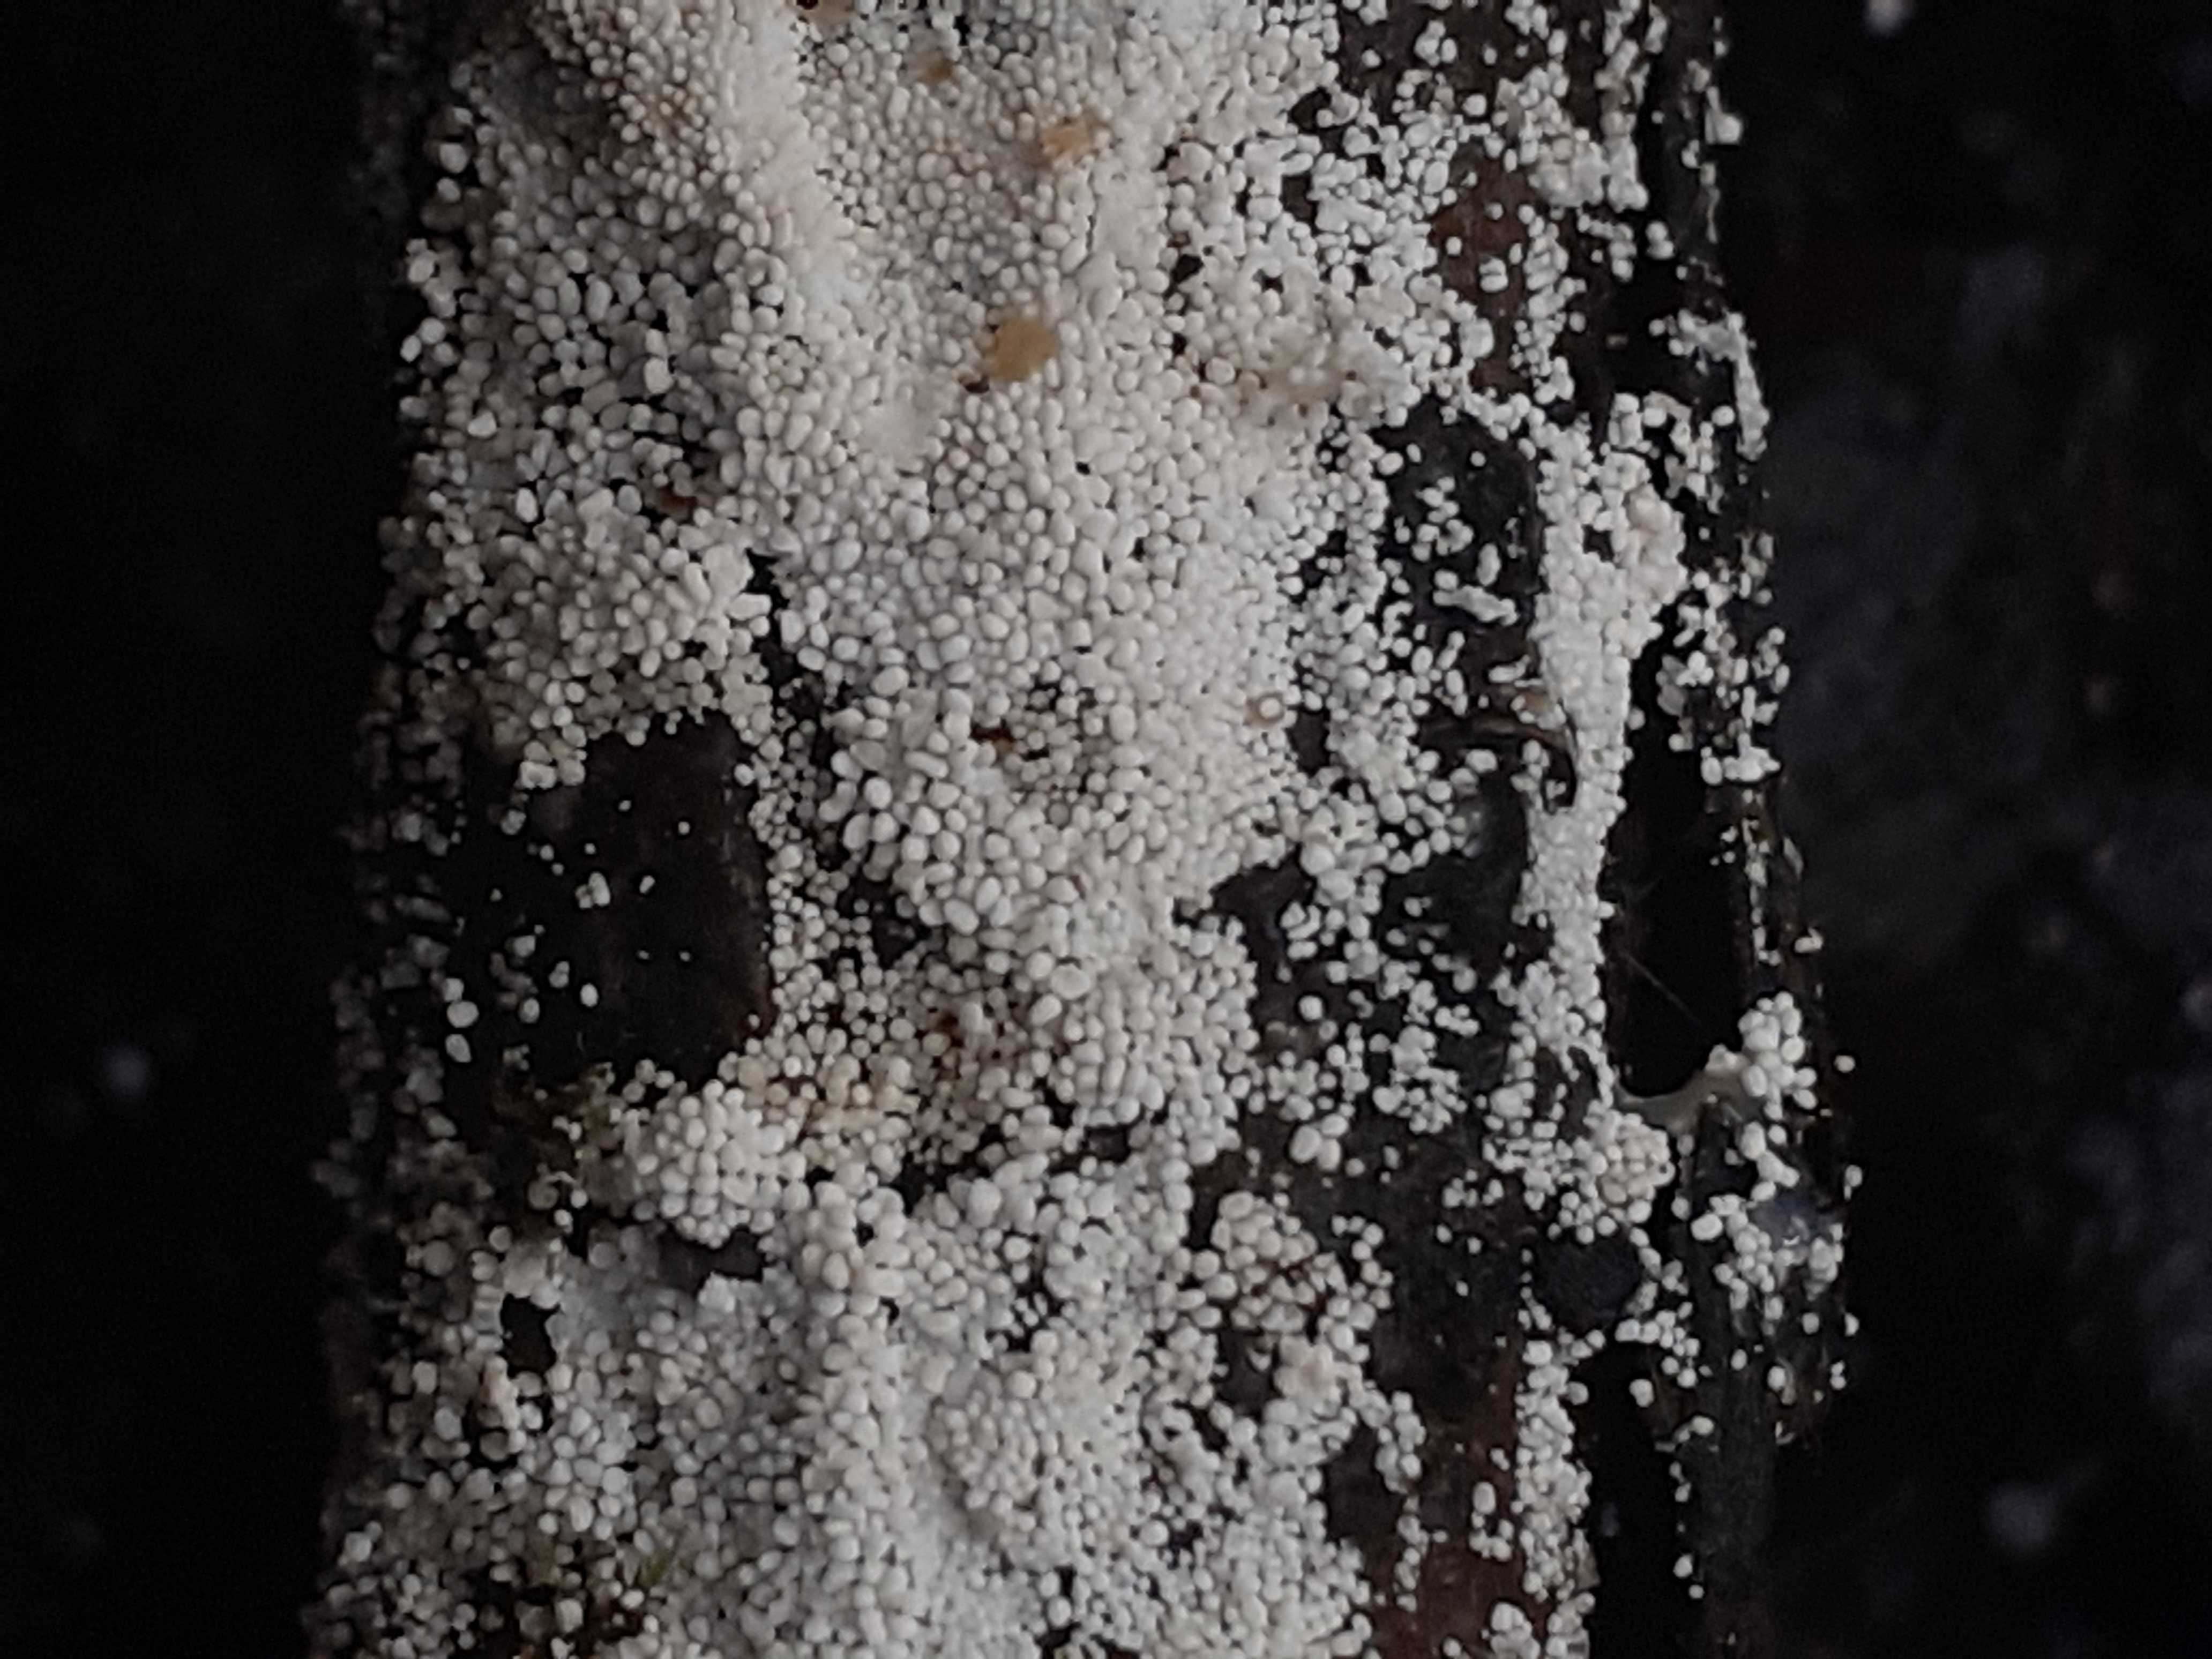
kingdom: Fungi
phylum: Basidiomycota
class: Agaricomycetes
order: Polyporales
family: Meruliaceae
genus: Bulbillomyces
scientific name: Bulbillomyces farinosus
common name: æg-kalkskind
